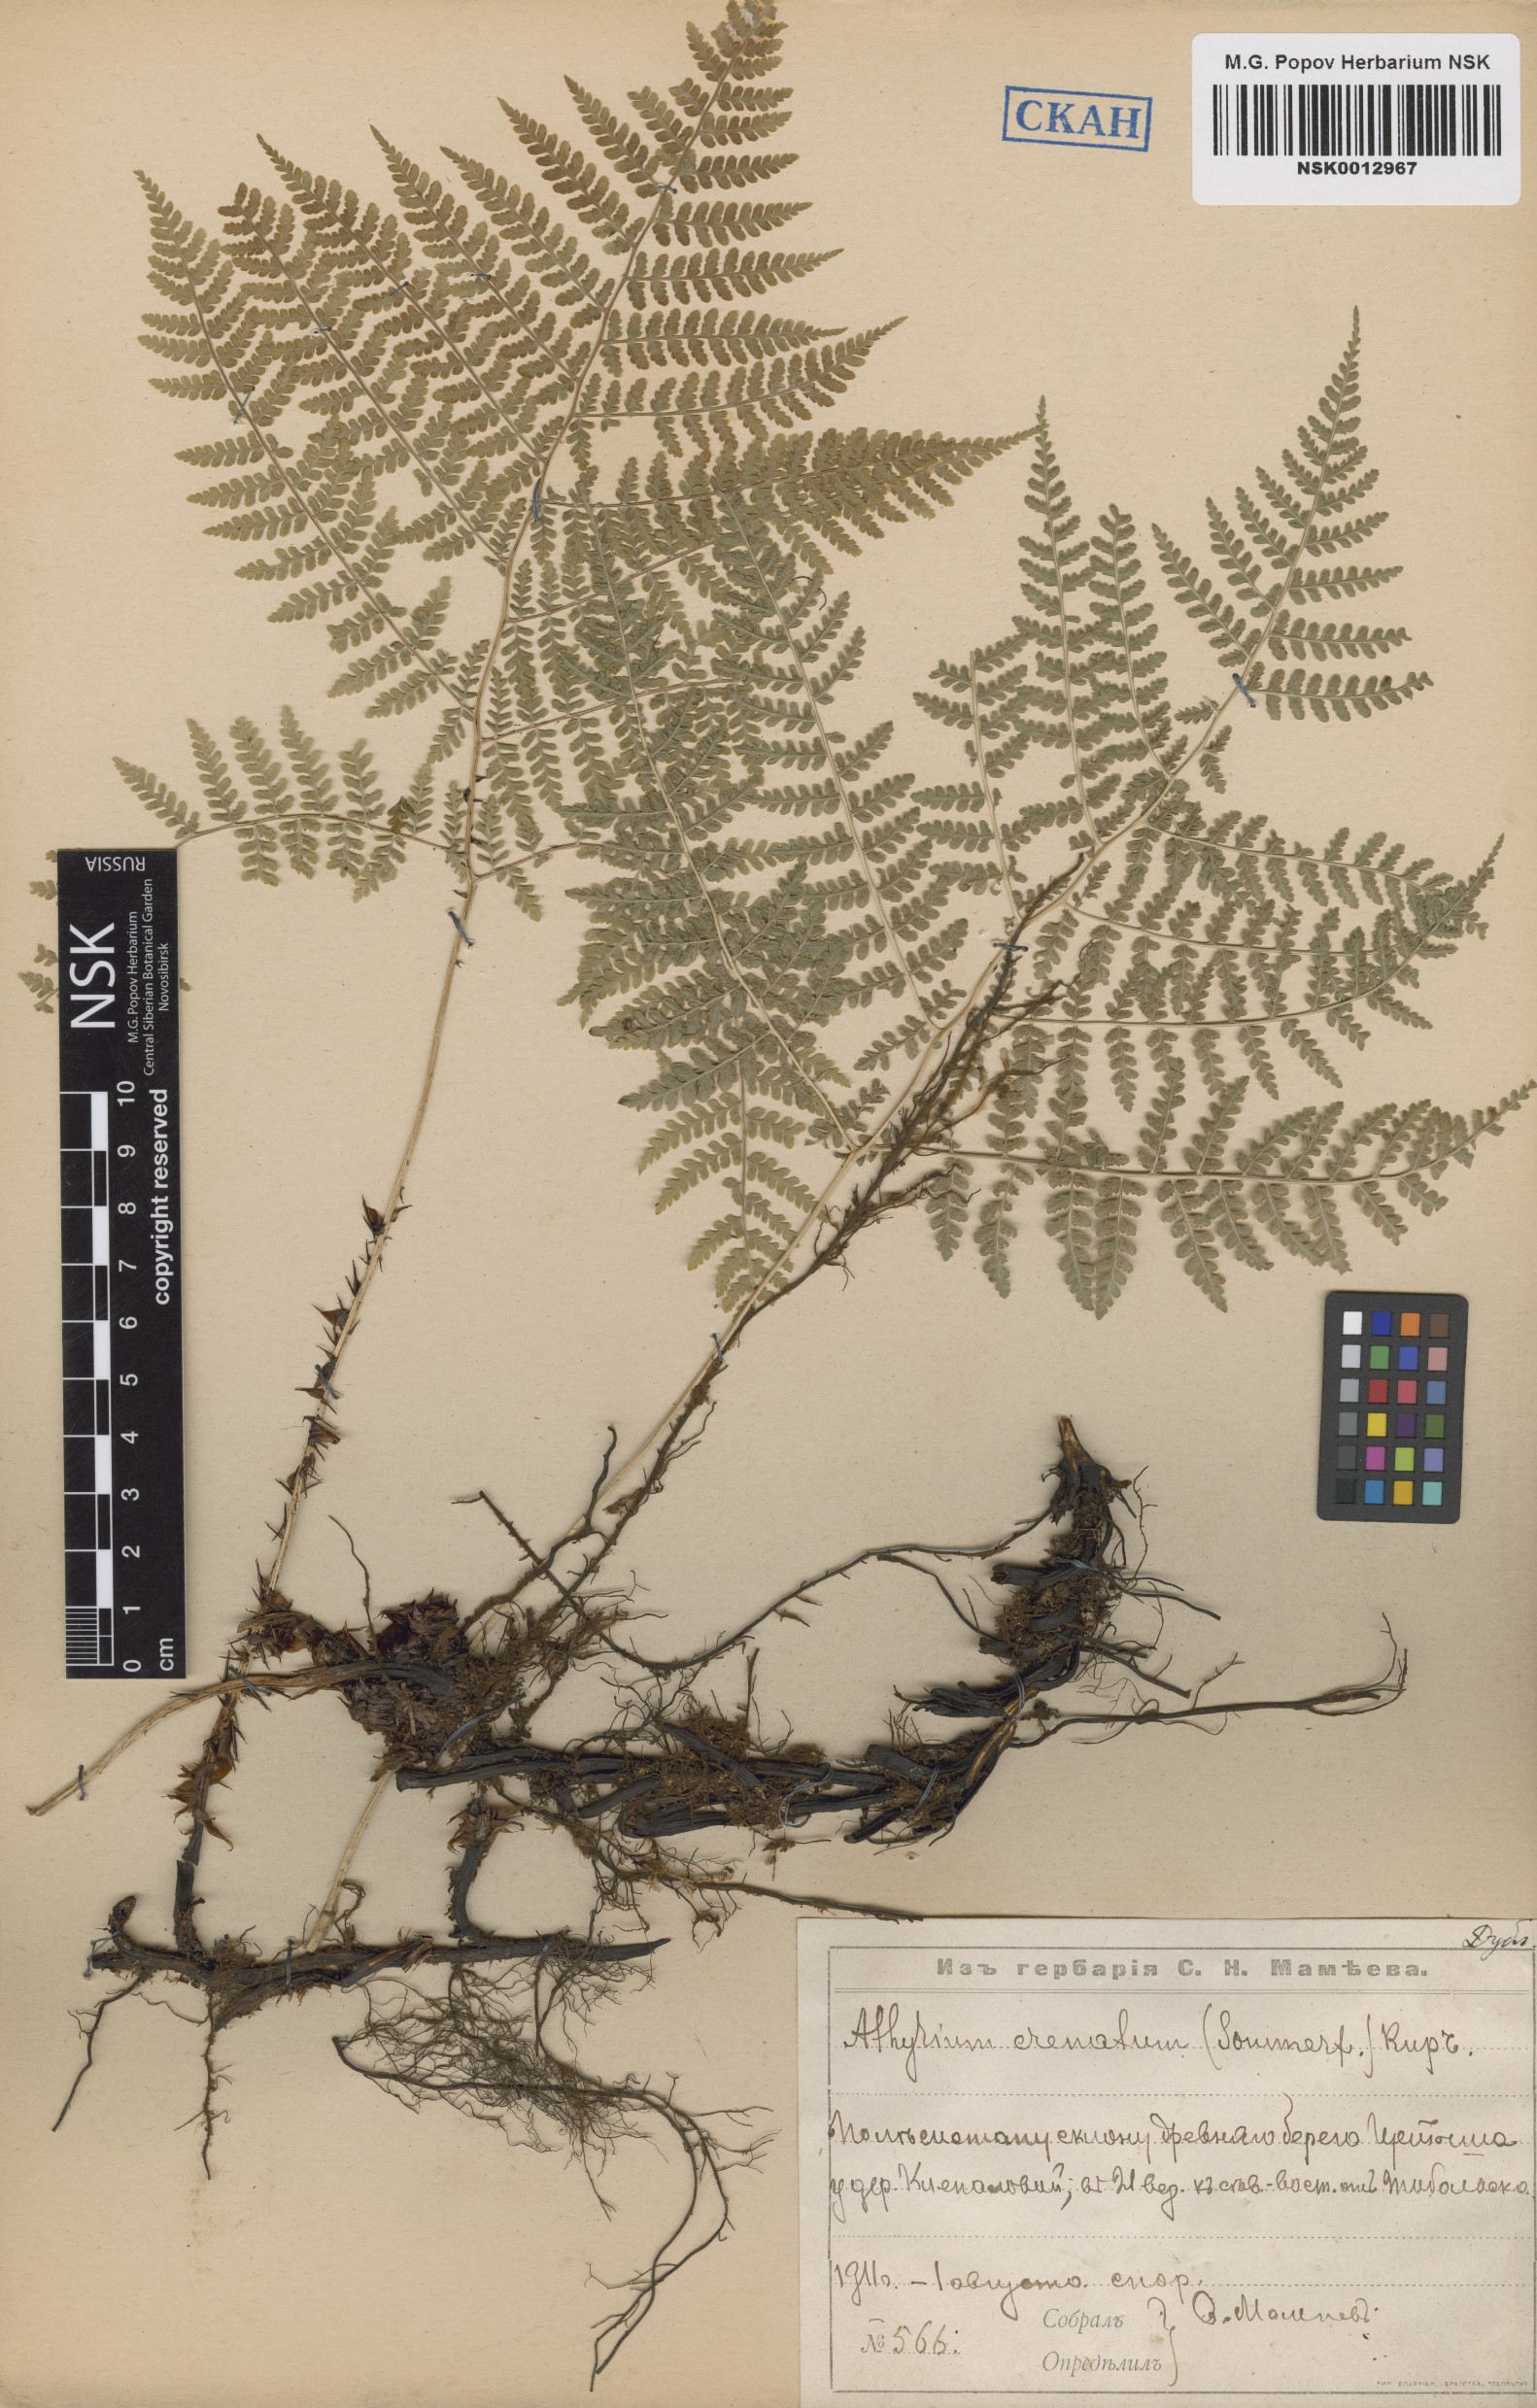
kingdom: Plantae
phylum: Tracheophyta
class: Polypodiopsida
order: Polypodiales
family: Athyriaceae
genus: Diplazium
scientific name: Diplazium sibiricum
